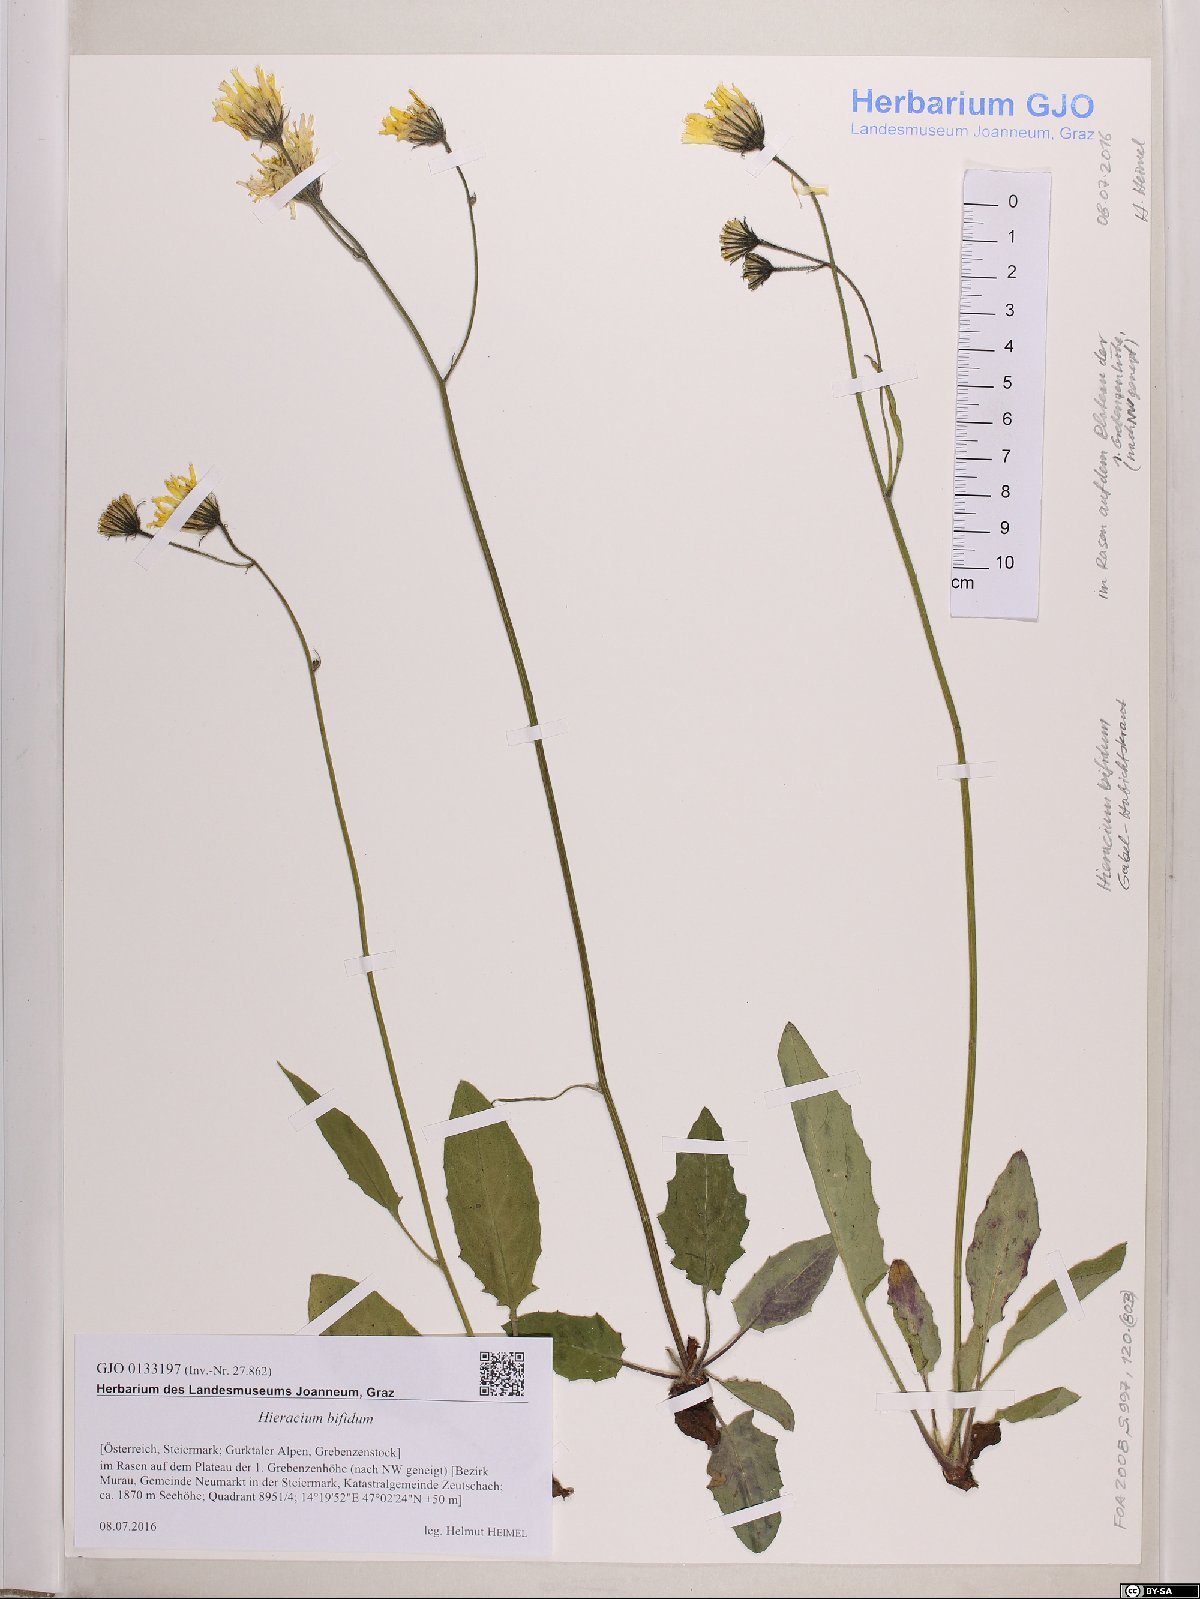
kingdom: Plantae
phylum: Tracheophyta
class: Magnoliopsida
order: Asterales
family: Asteraceae
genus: Hieracium
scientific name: Hieracium bifidum
